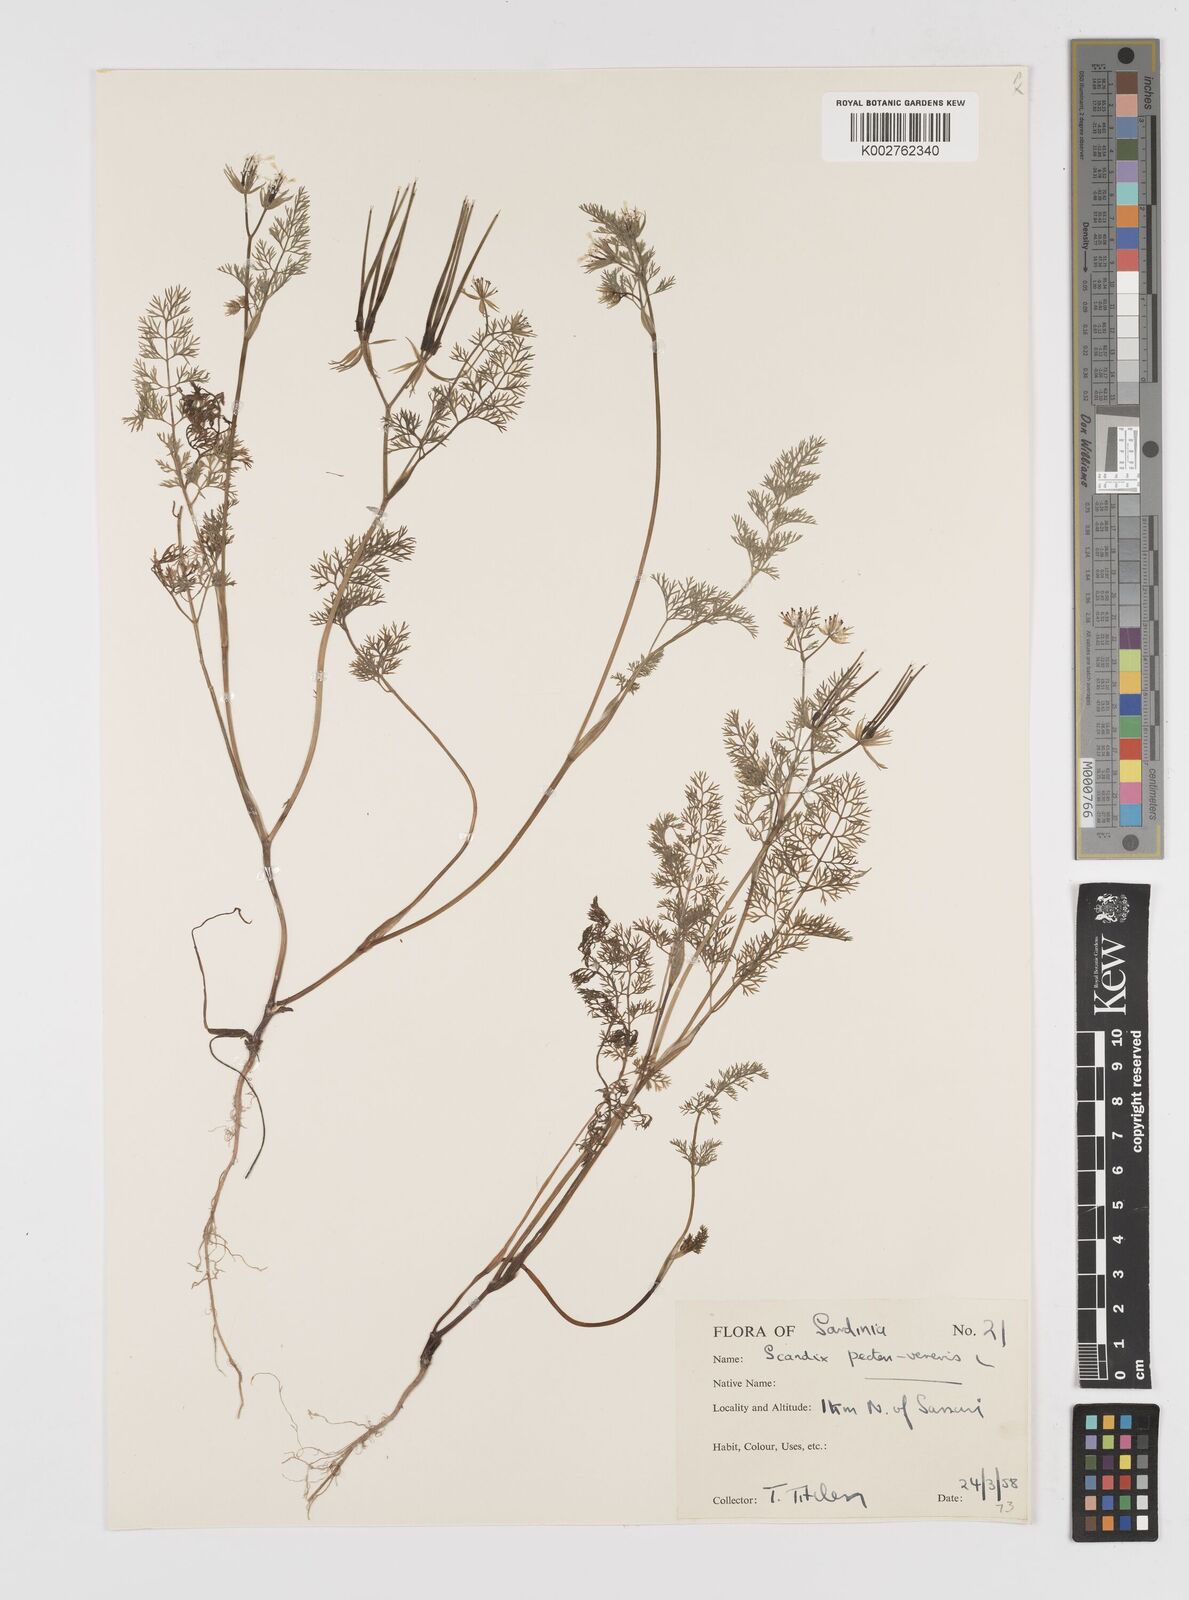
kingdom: Plantae
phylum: Tracheophyta
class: Magnoliopsida
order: Apiales
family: Apiaceae
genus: Scandix
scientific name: Scandix pecten-veneris
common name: Shepherd's-needle
